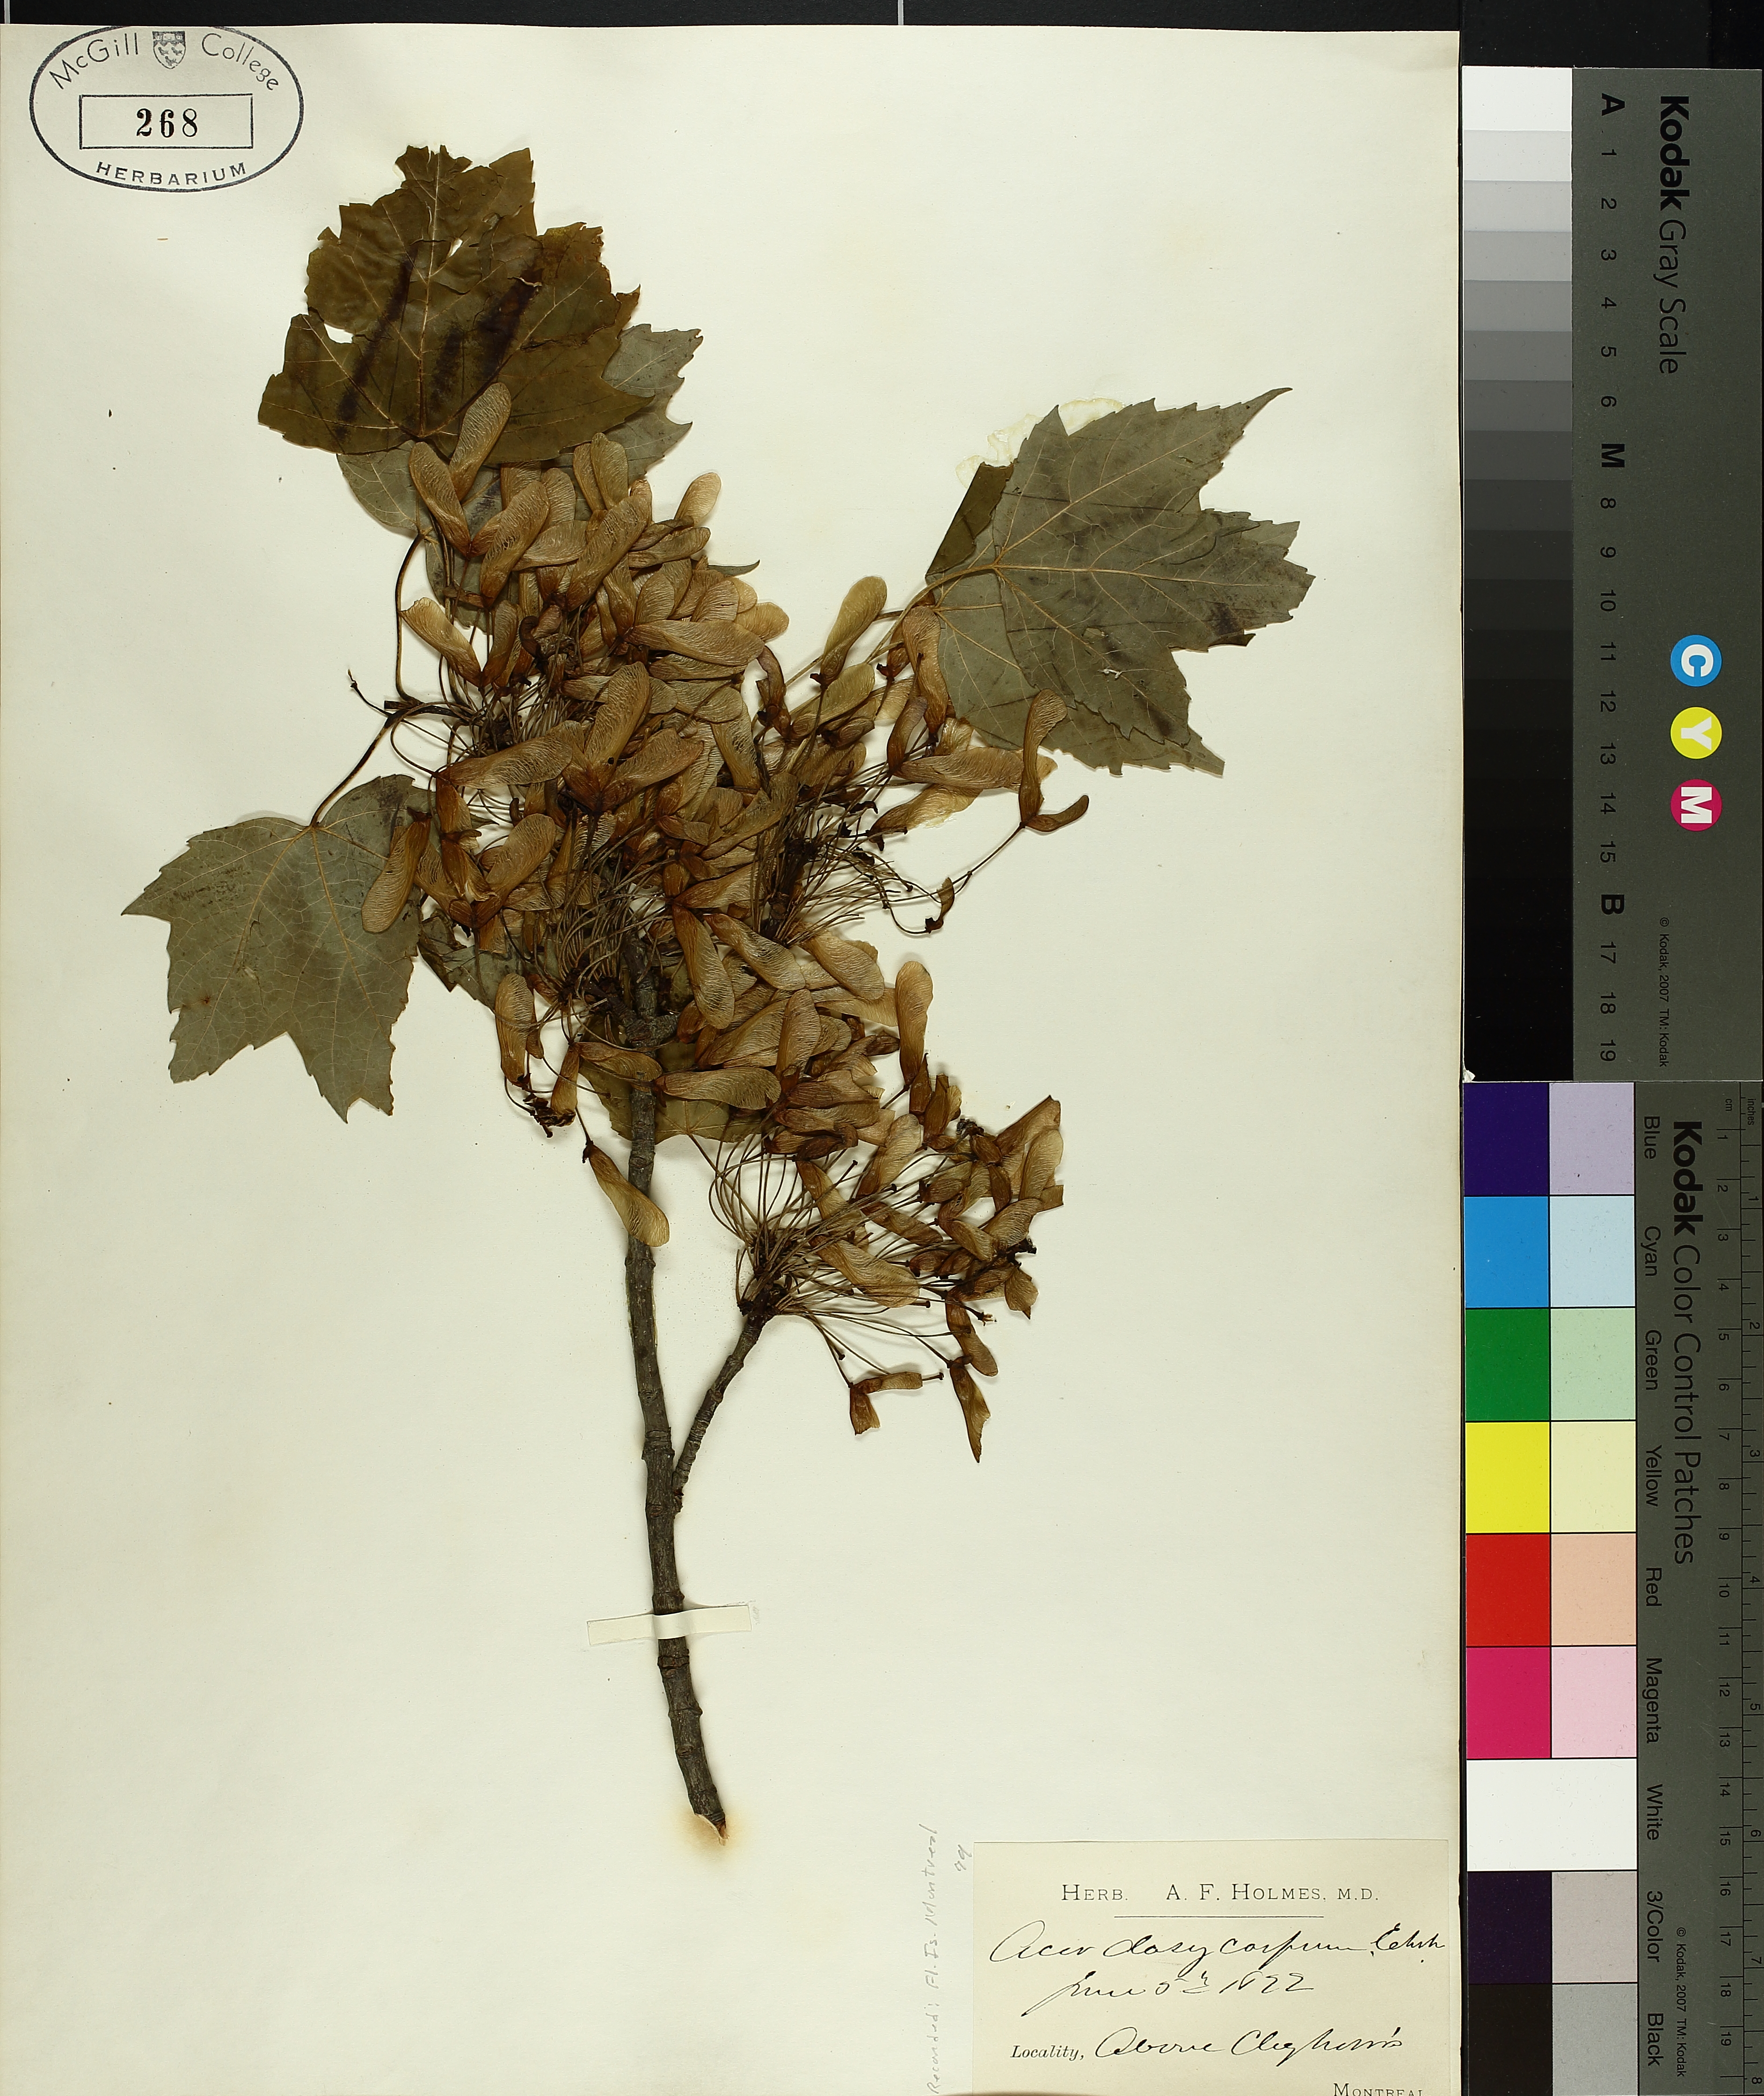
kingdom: Plantae
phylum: Tracheophyta
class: Magnoliopsida
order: Sapindales
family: Sapindaceae
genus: Acer
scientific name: Acer rubrum
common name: Red maple
